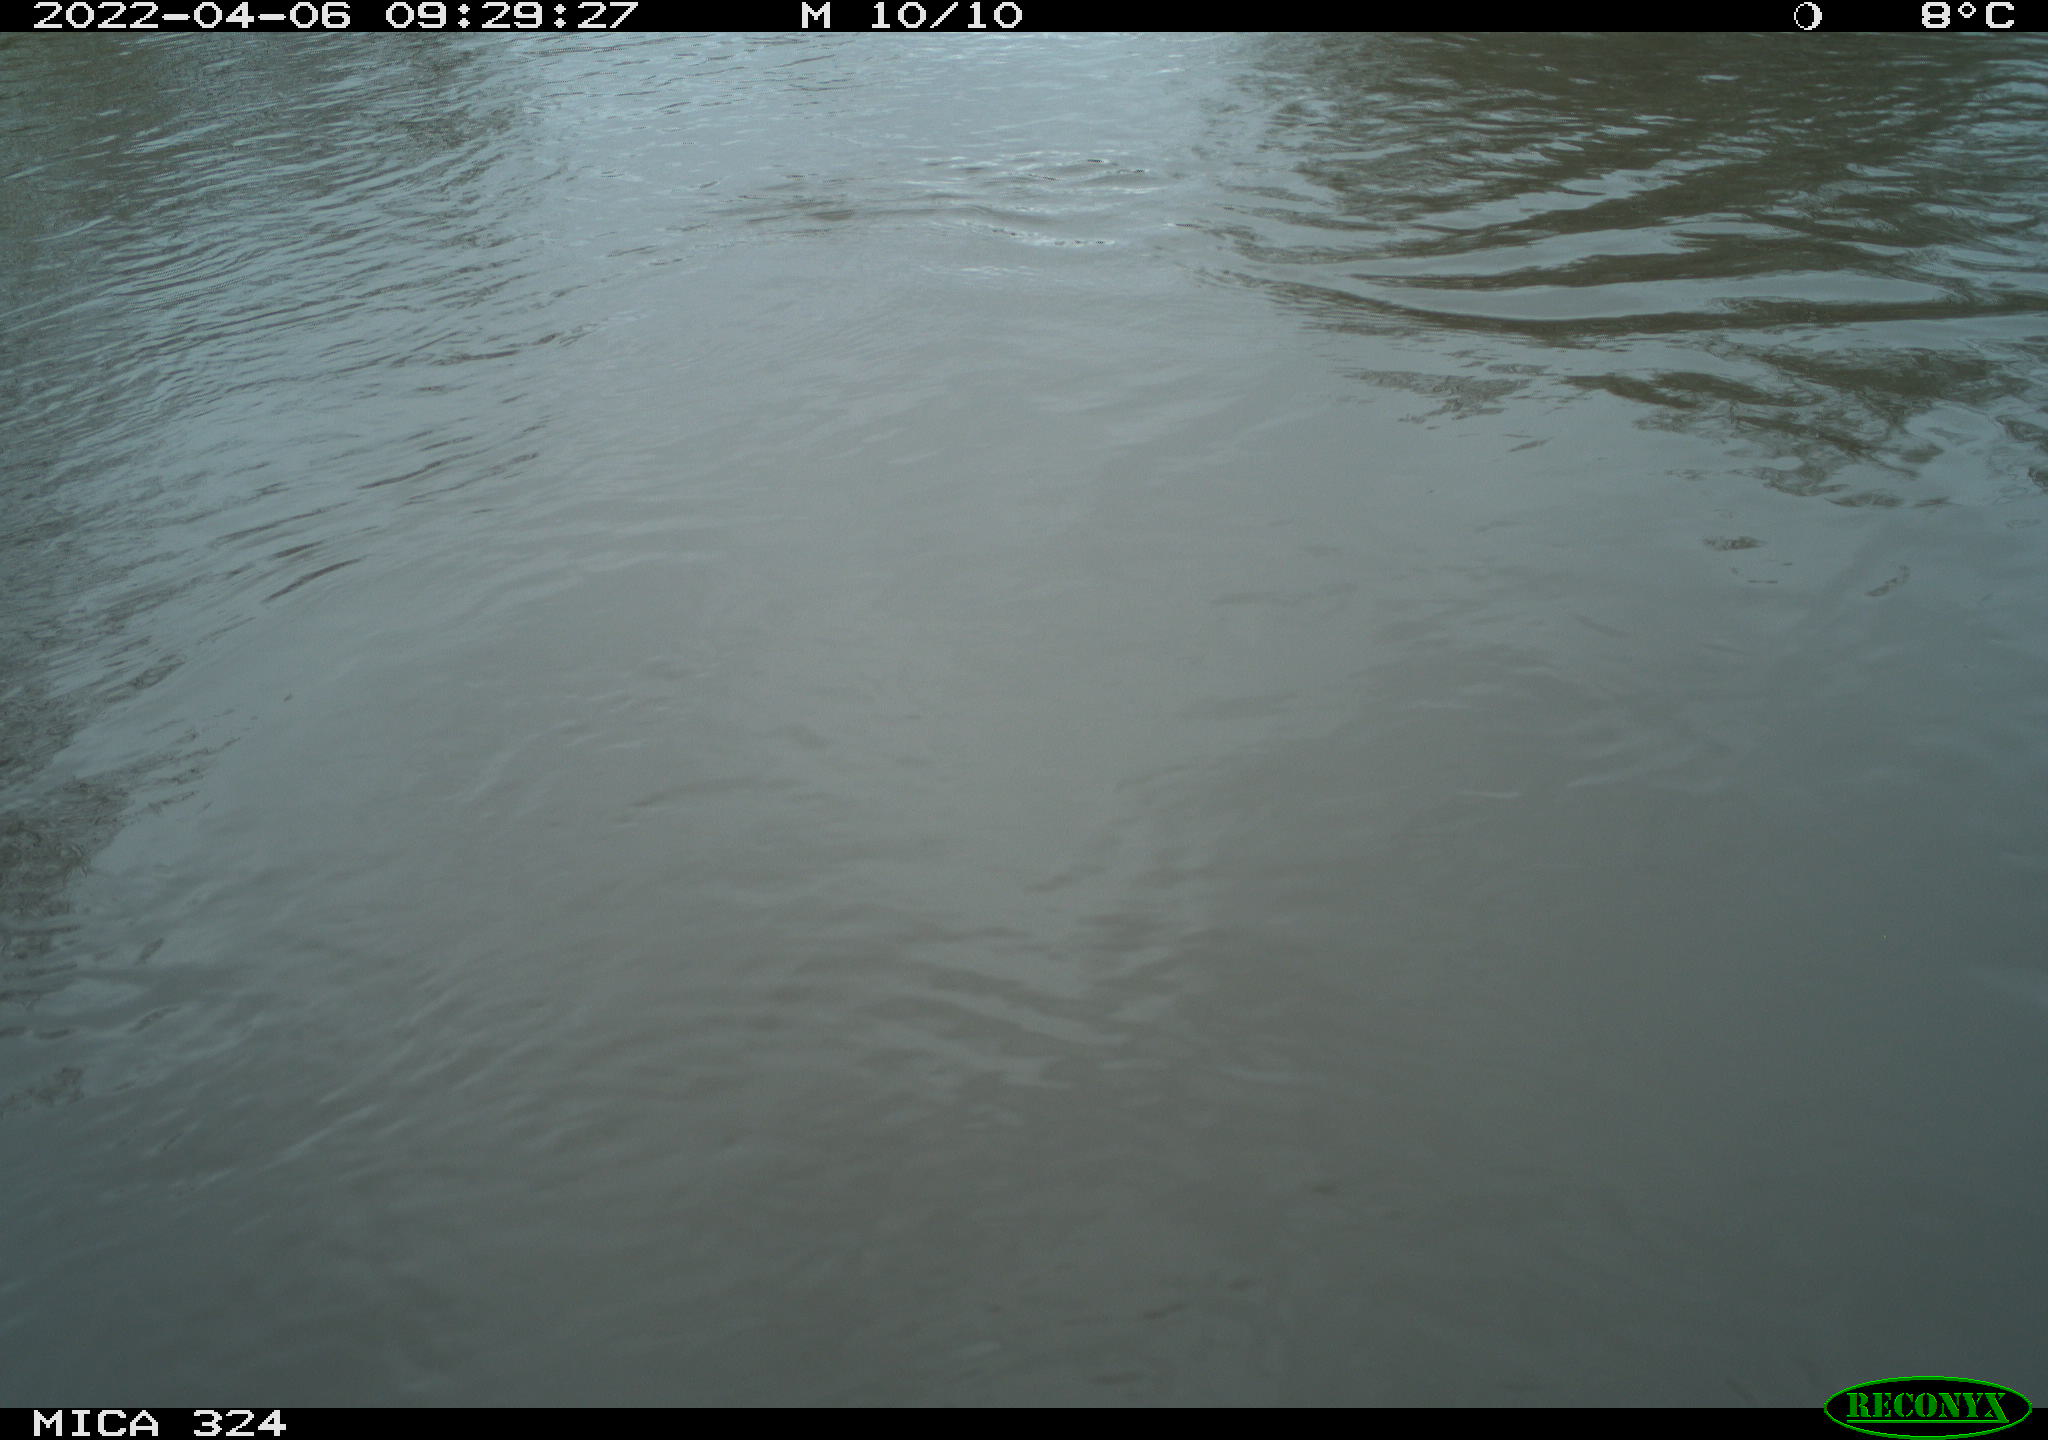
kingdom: Animalia
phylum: Chordata
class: Aves
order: Gruiformes
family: Rallidae
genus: Gallinula
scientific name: Gallinula chloropus
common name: Common moorhen
